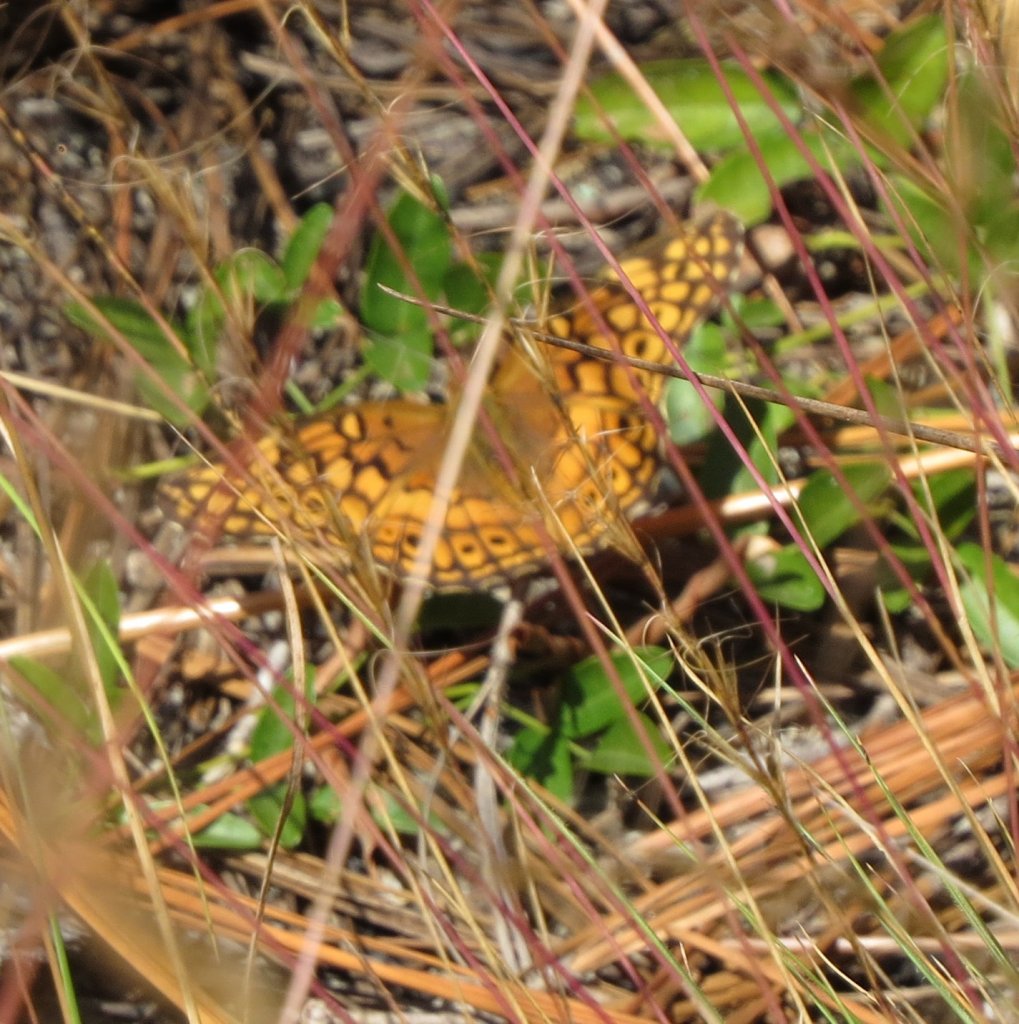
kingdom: Animalia
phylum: Arthropoda
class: Insecta
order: Lepidoptera
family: Nymphalidae
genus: Euptoieta
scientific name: Euptoieta claudia
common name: Variegated Fritillary
